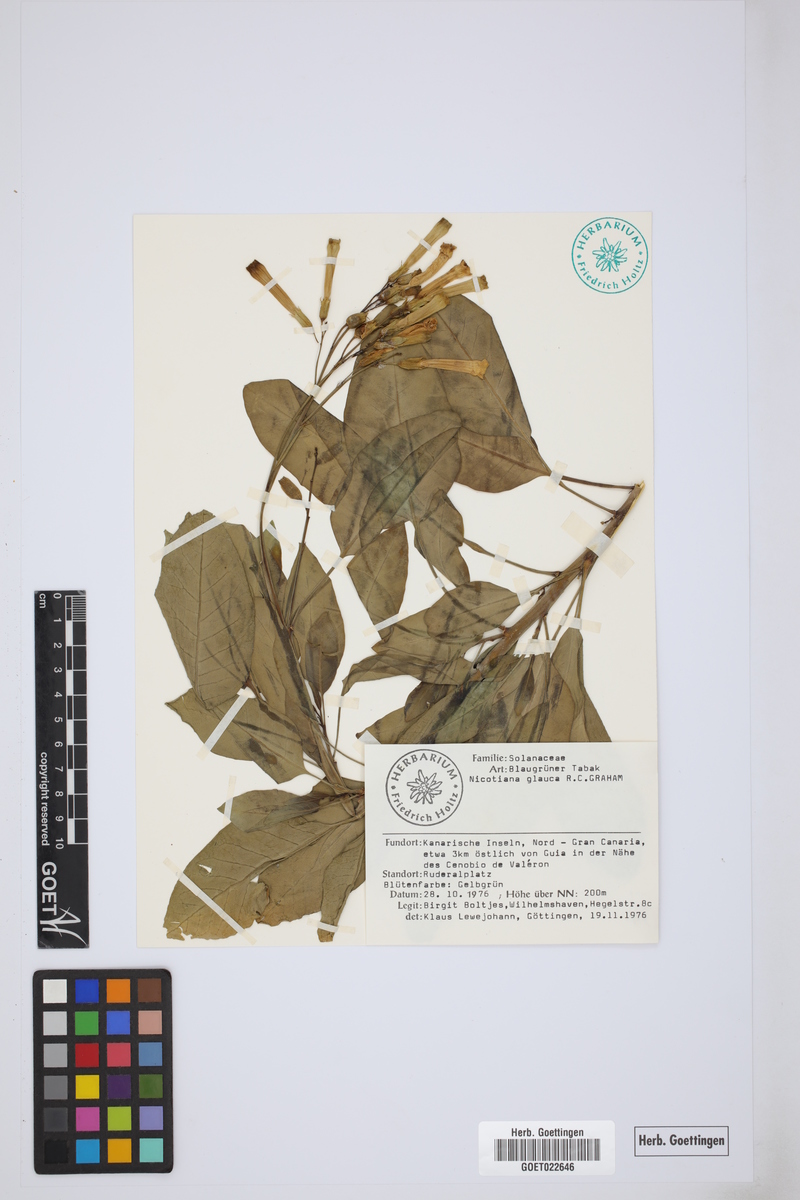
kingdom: Plantae
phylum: Tracheophyta
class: Magnoliopsida
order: Solanales
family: Solanaceae
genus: Nicotiana
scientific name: Nicotiana glauca
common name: Tree tobacco
